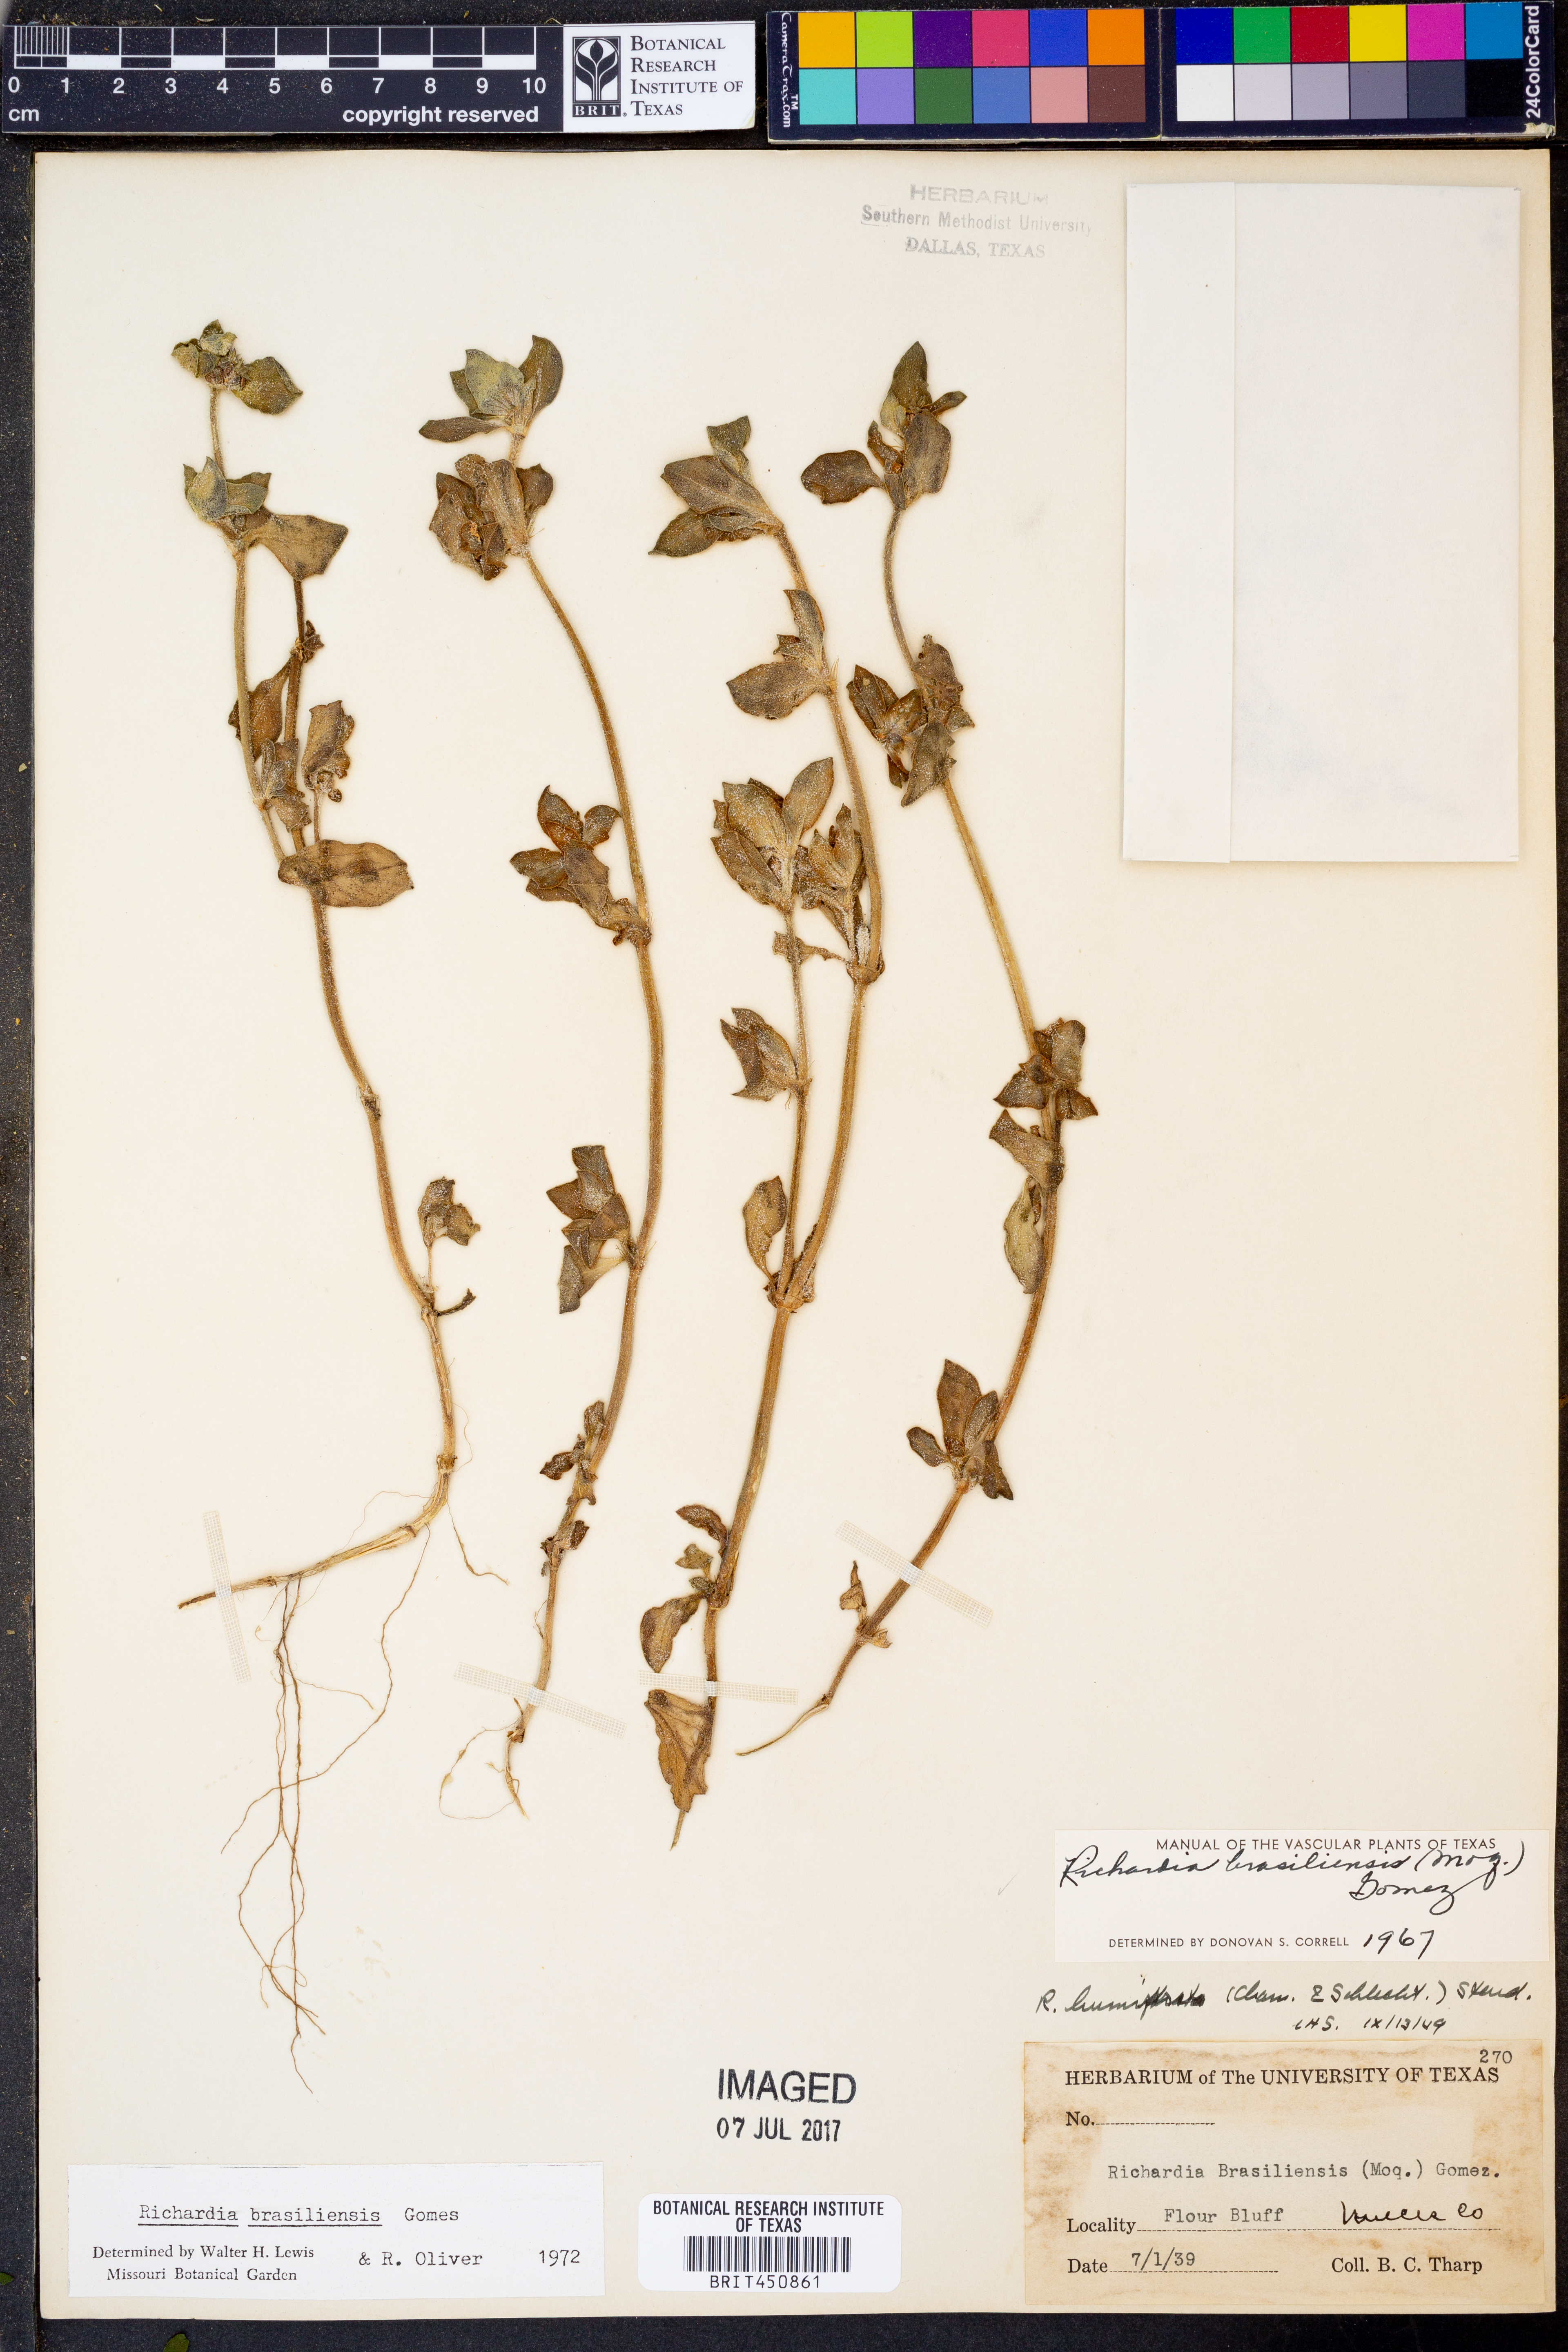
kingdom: Plantae
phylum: Tracheophyta
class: Magnoliopsida
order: Gentianales
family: Rubiaceae
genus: Richardia
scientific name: Richardia brasiliensis
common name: Tropical mexican clover
